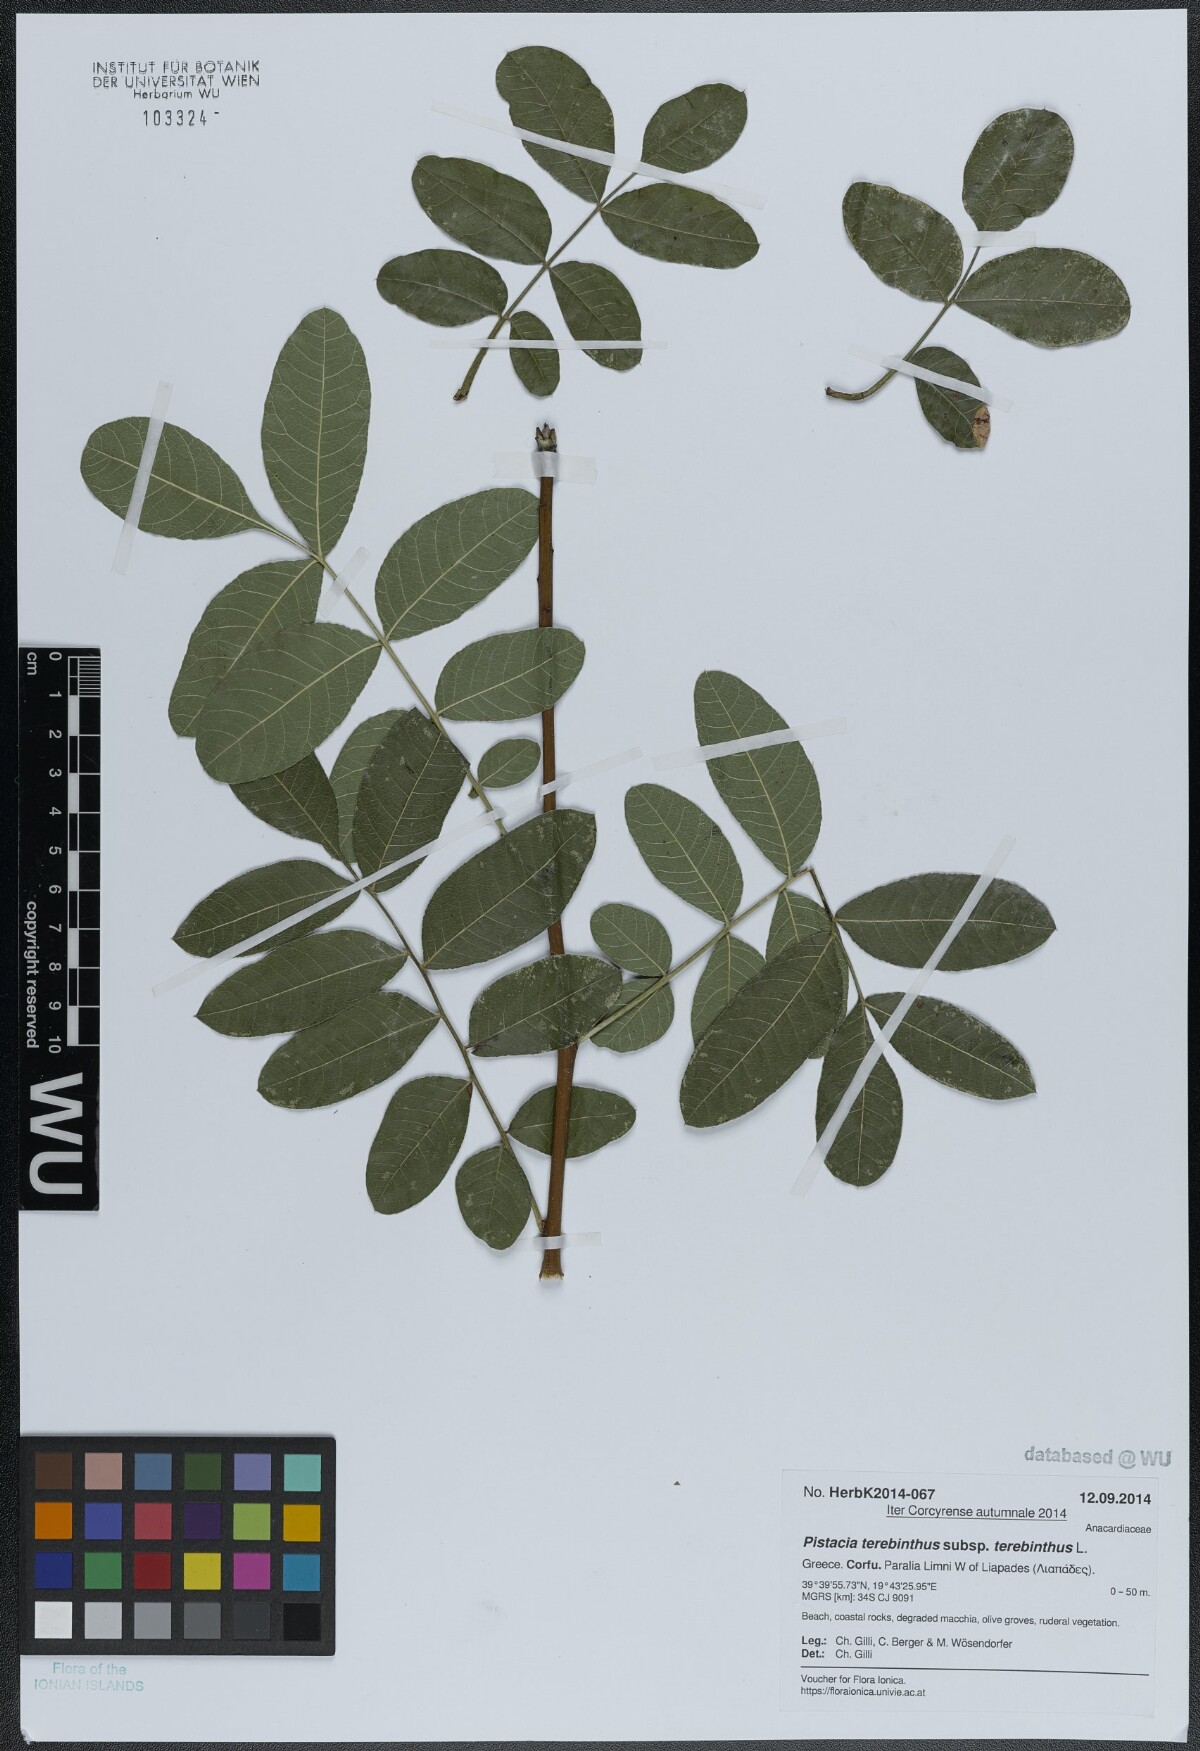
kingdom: Plantae
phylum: Tracheophyta
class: Magnoliopsida
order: Sapindales
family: Anacardiaceae
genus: Pistacia
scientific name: Pistacia terebinthus
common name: Terebinth
